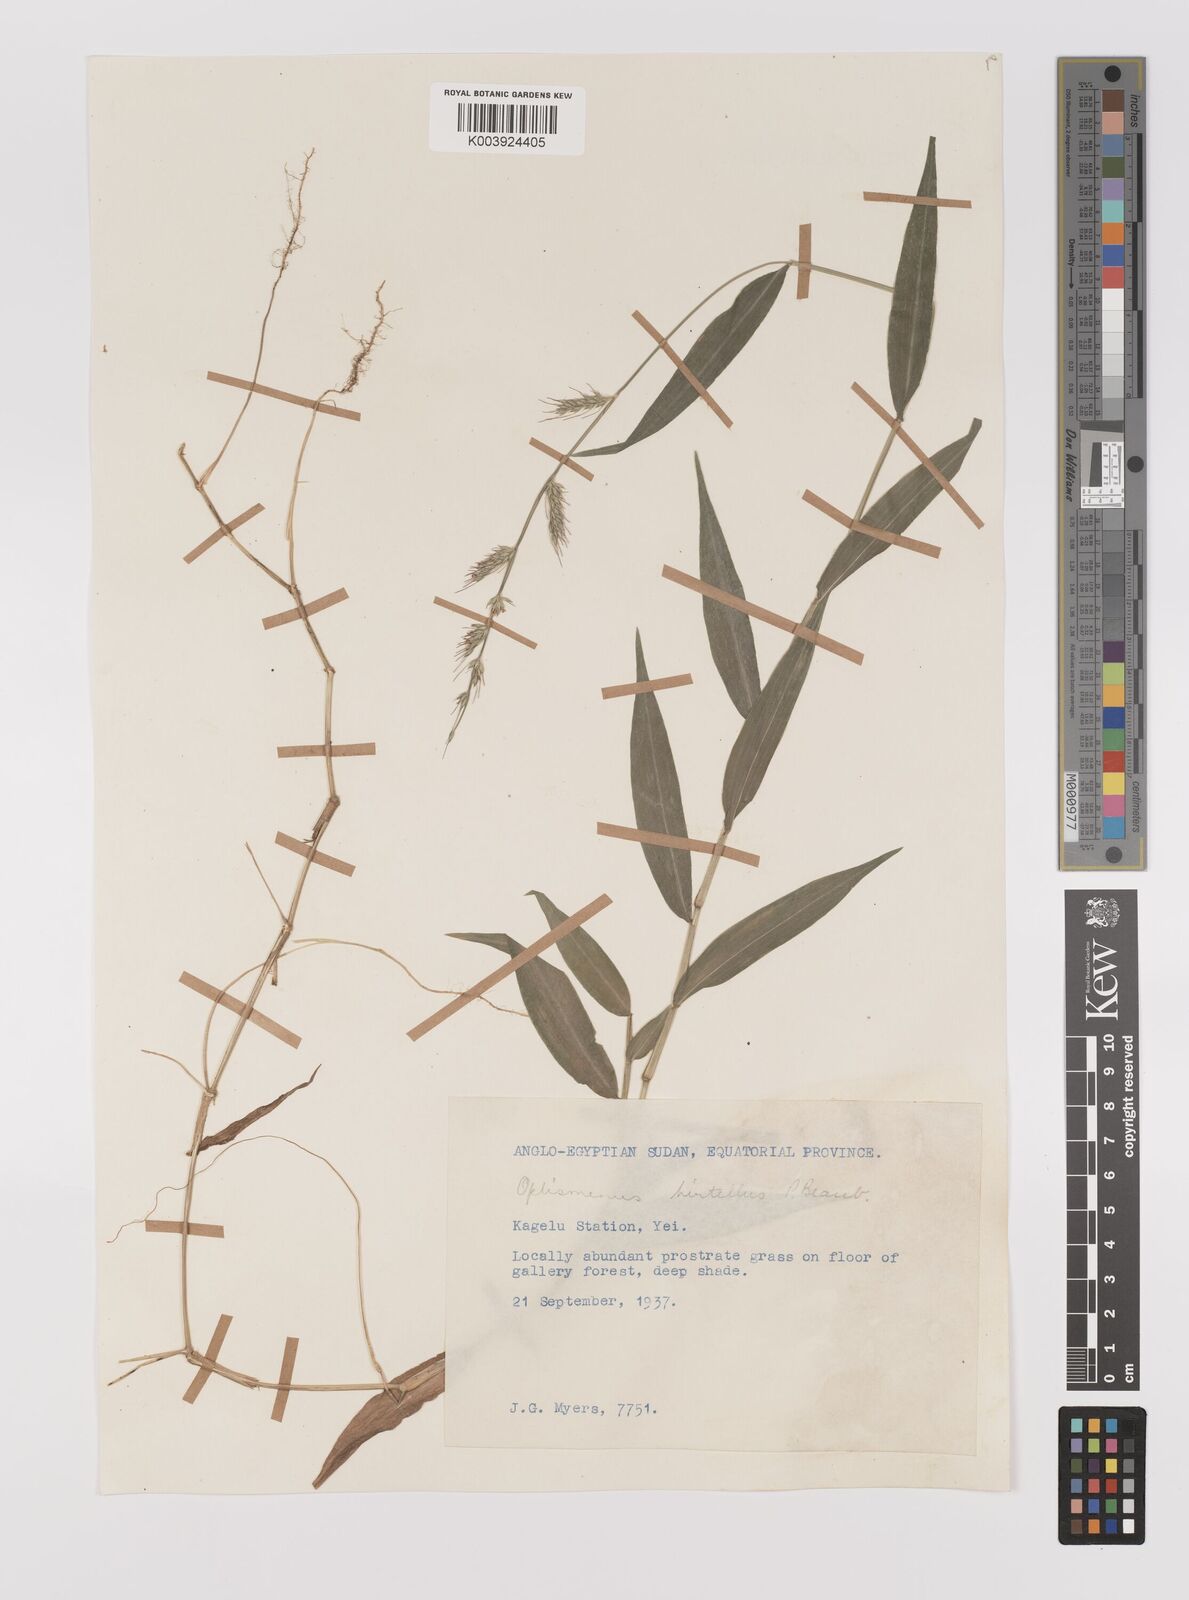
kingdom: Plantae
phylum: Tracheophyta
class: Liliopsida
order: Poales
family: Poaceae
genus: Oplismenus
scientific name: Oplismenus hirtellus
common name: Basketgrass
